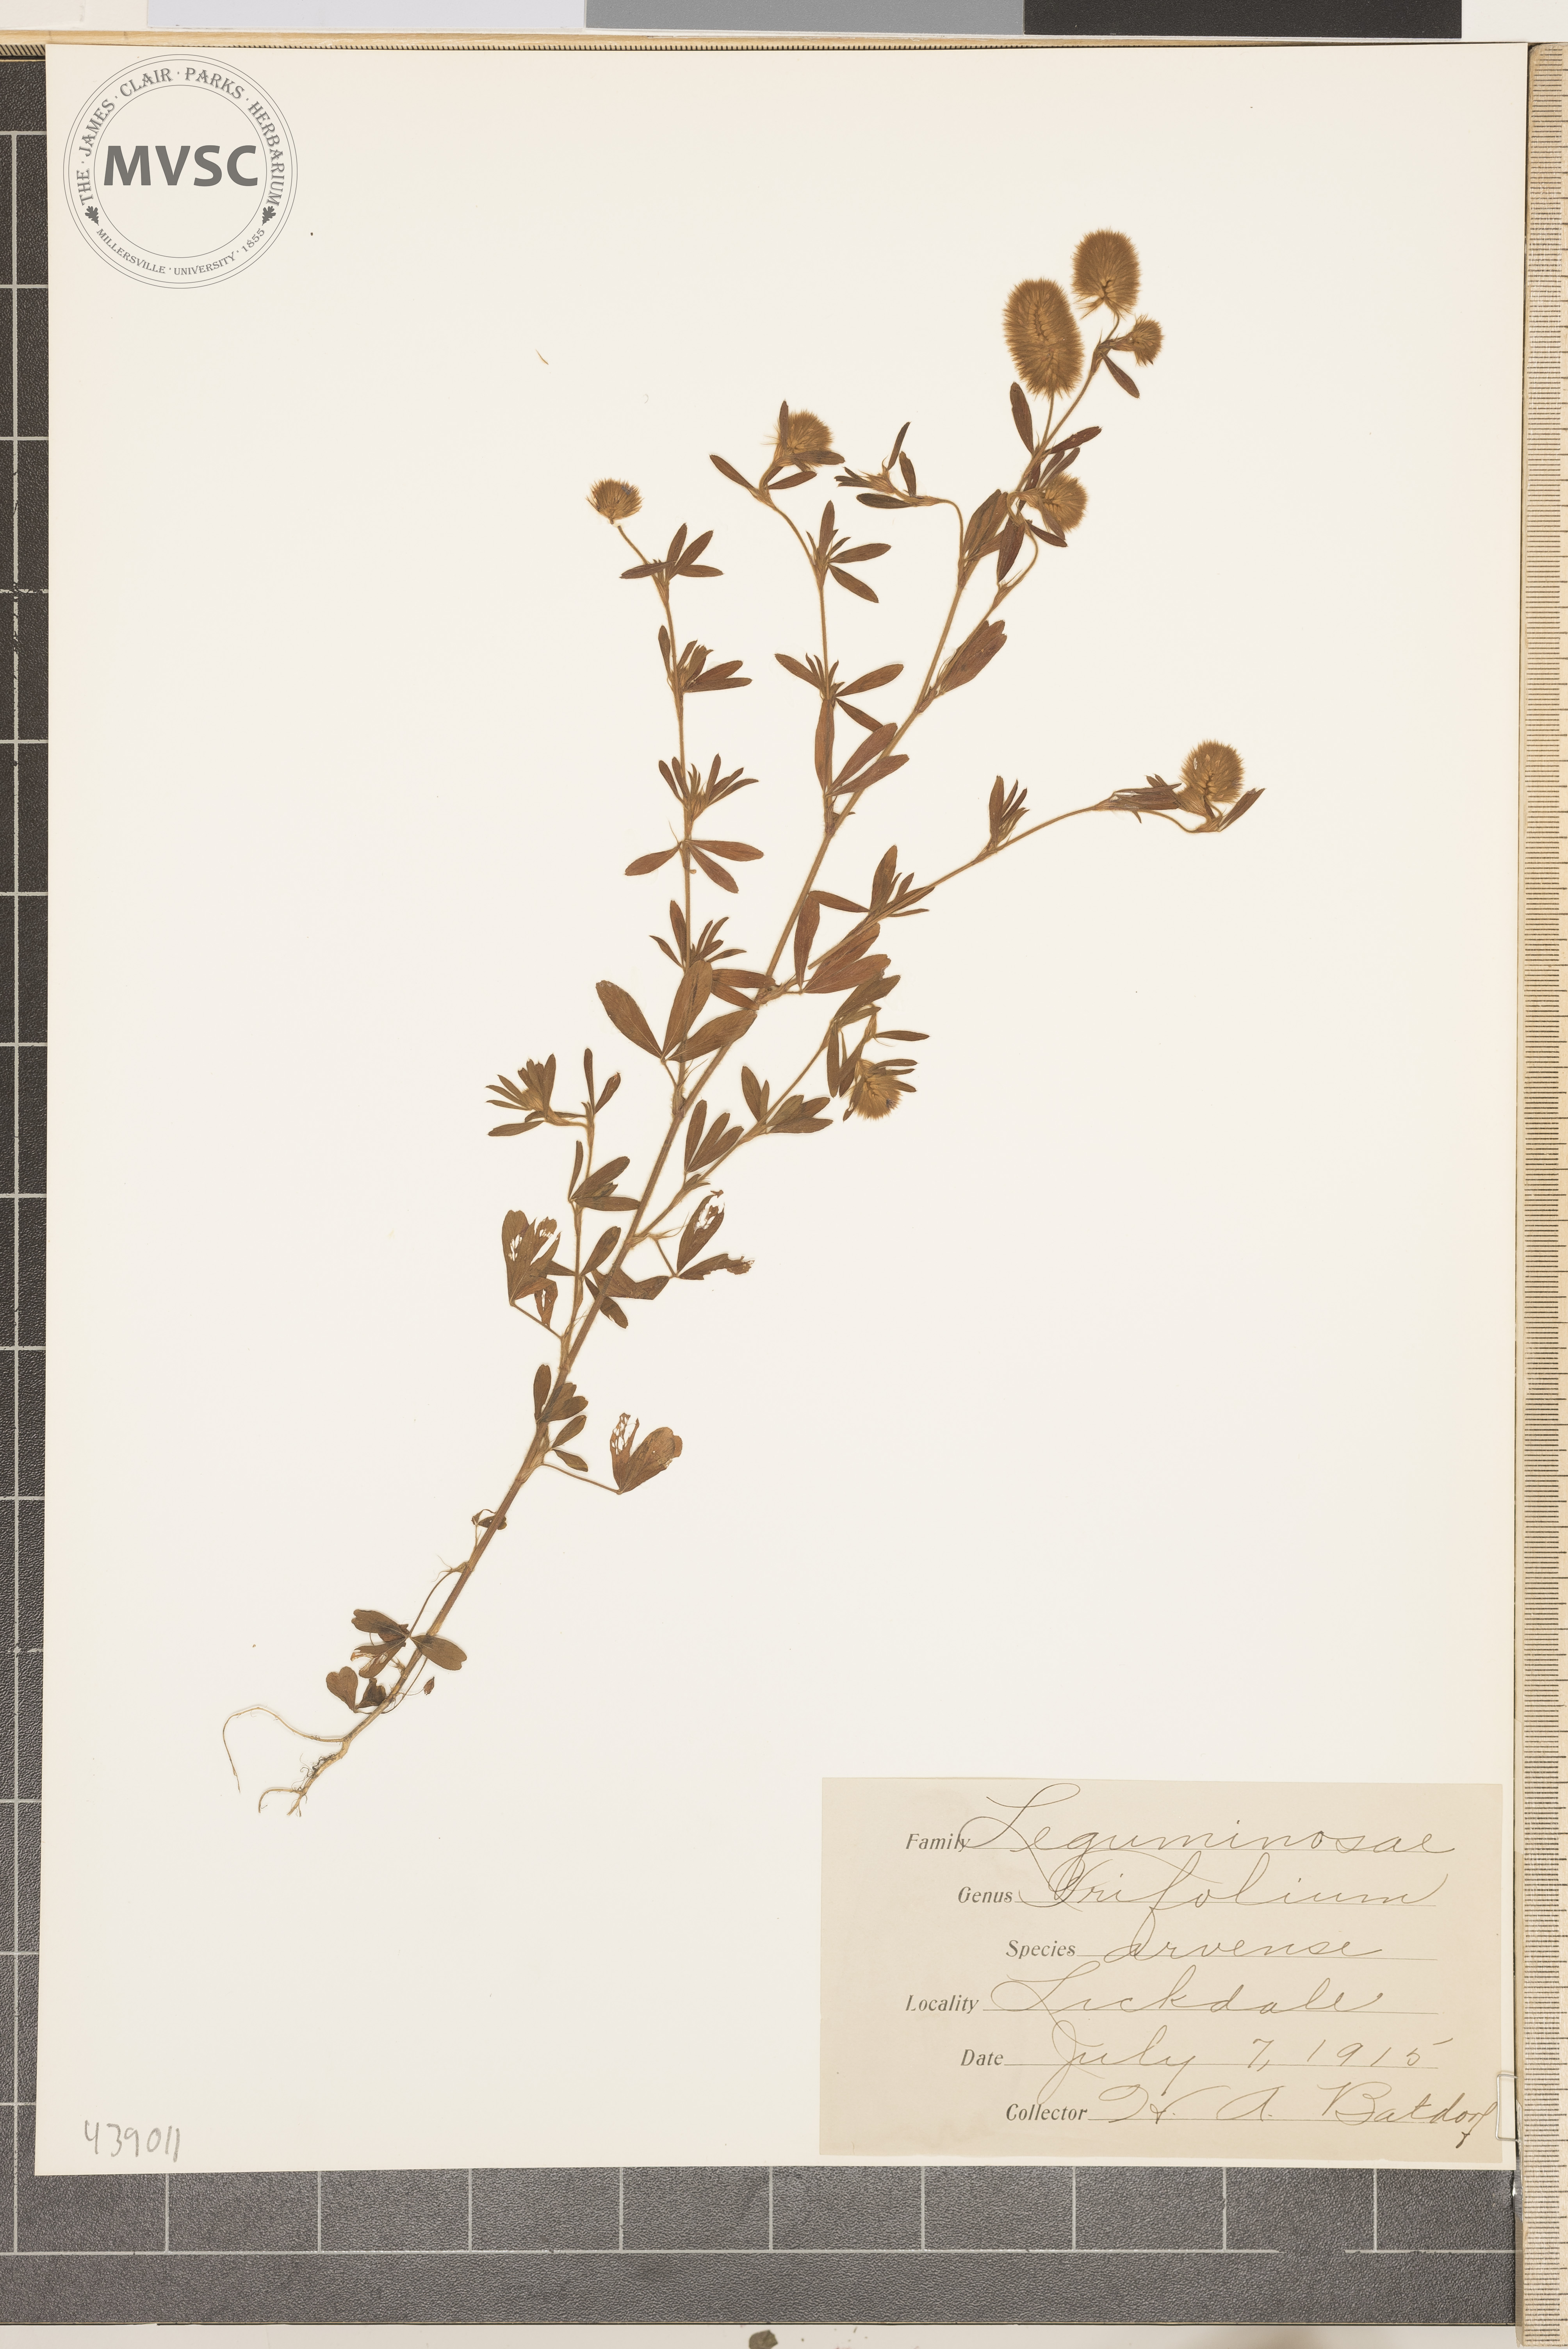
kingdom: Plantae
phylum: Tracheophyta
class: Magnoliopsida
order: Fabales
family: Fabaceae
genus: Trifolium
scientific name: Trifolium arvense
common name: Hare's-foot clover
